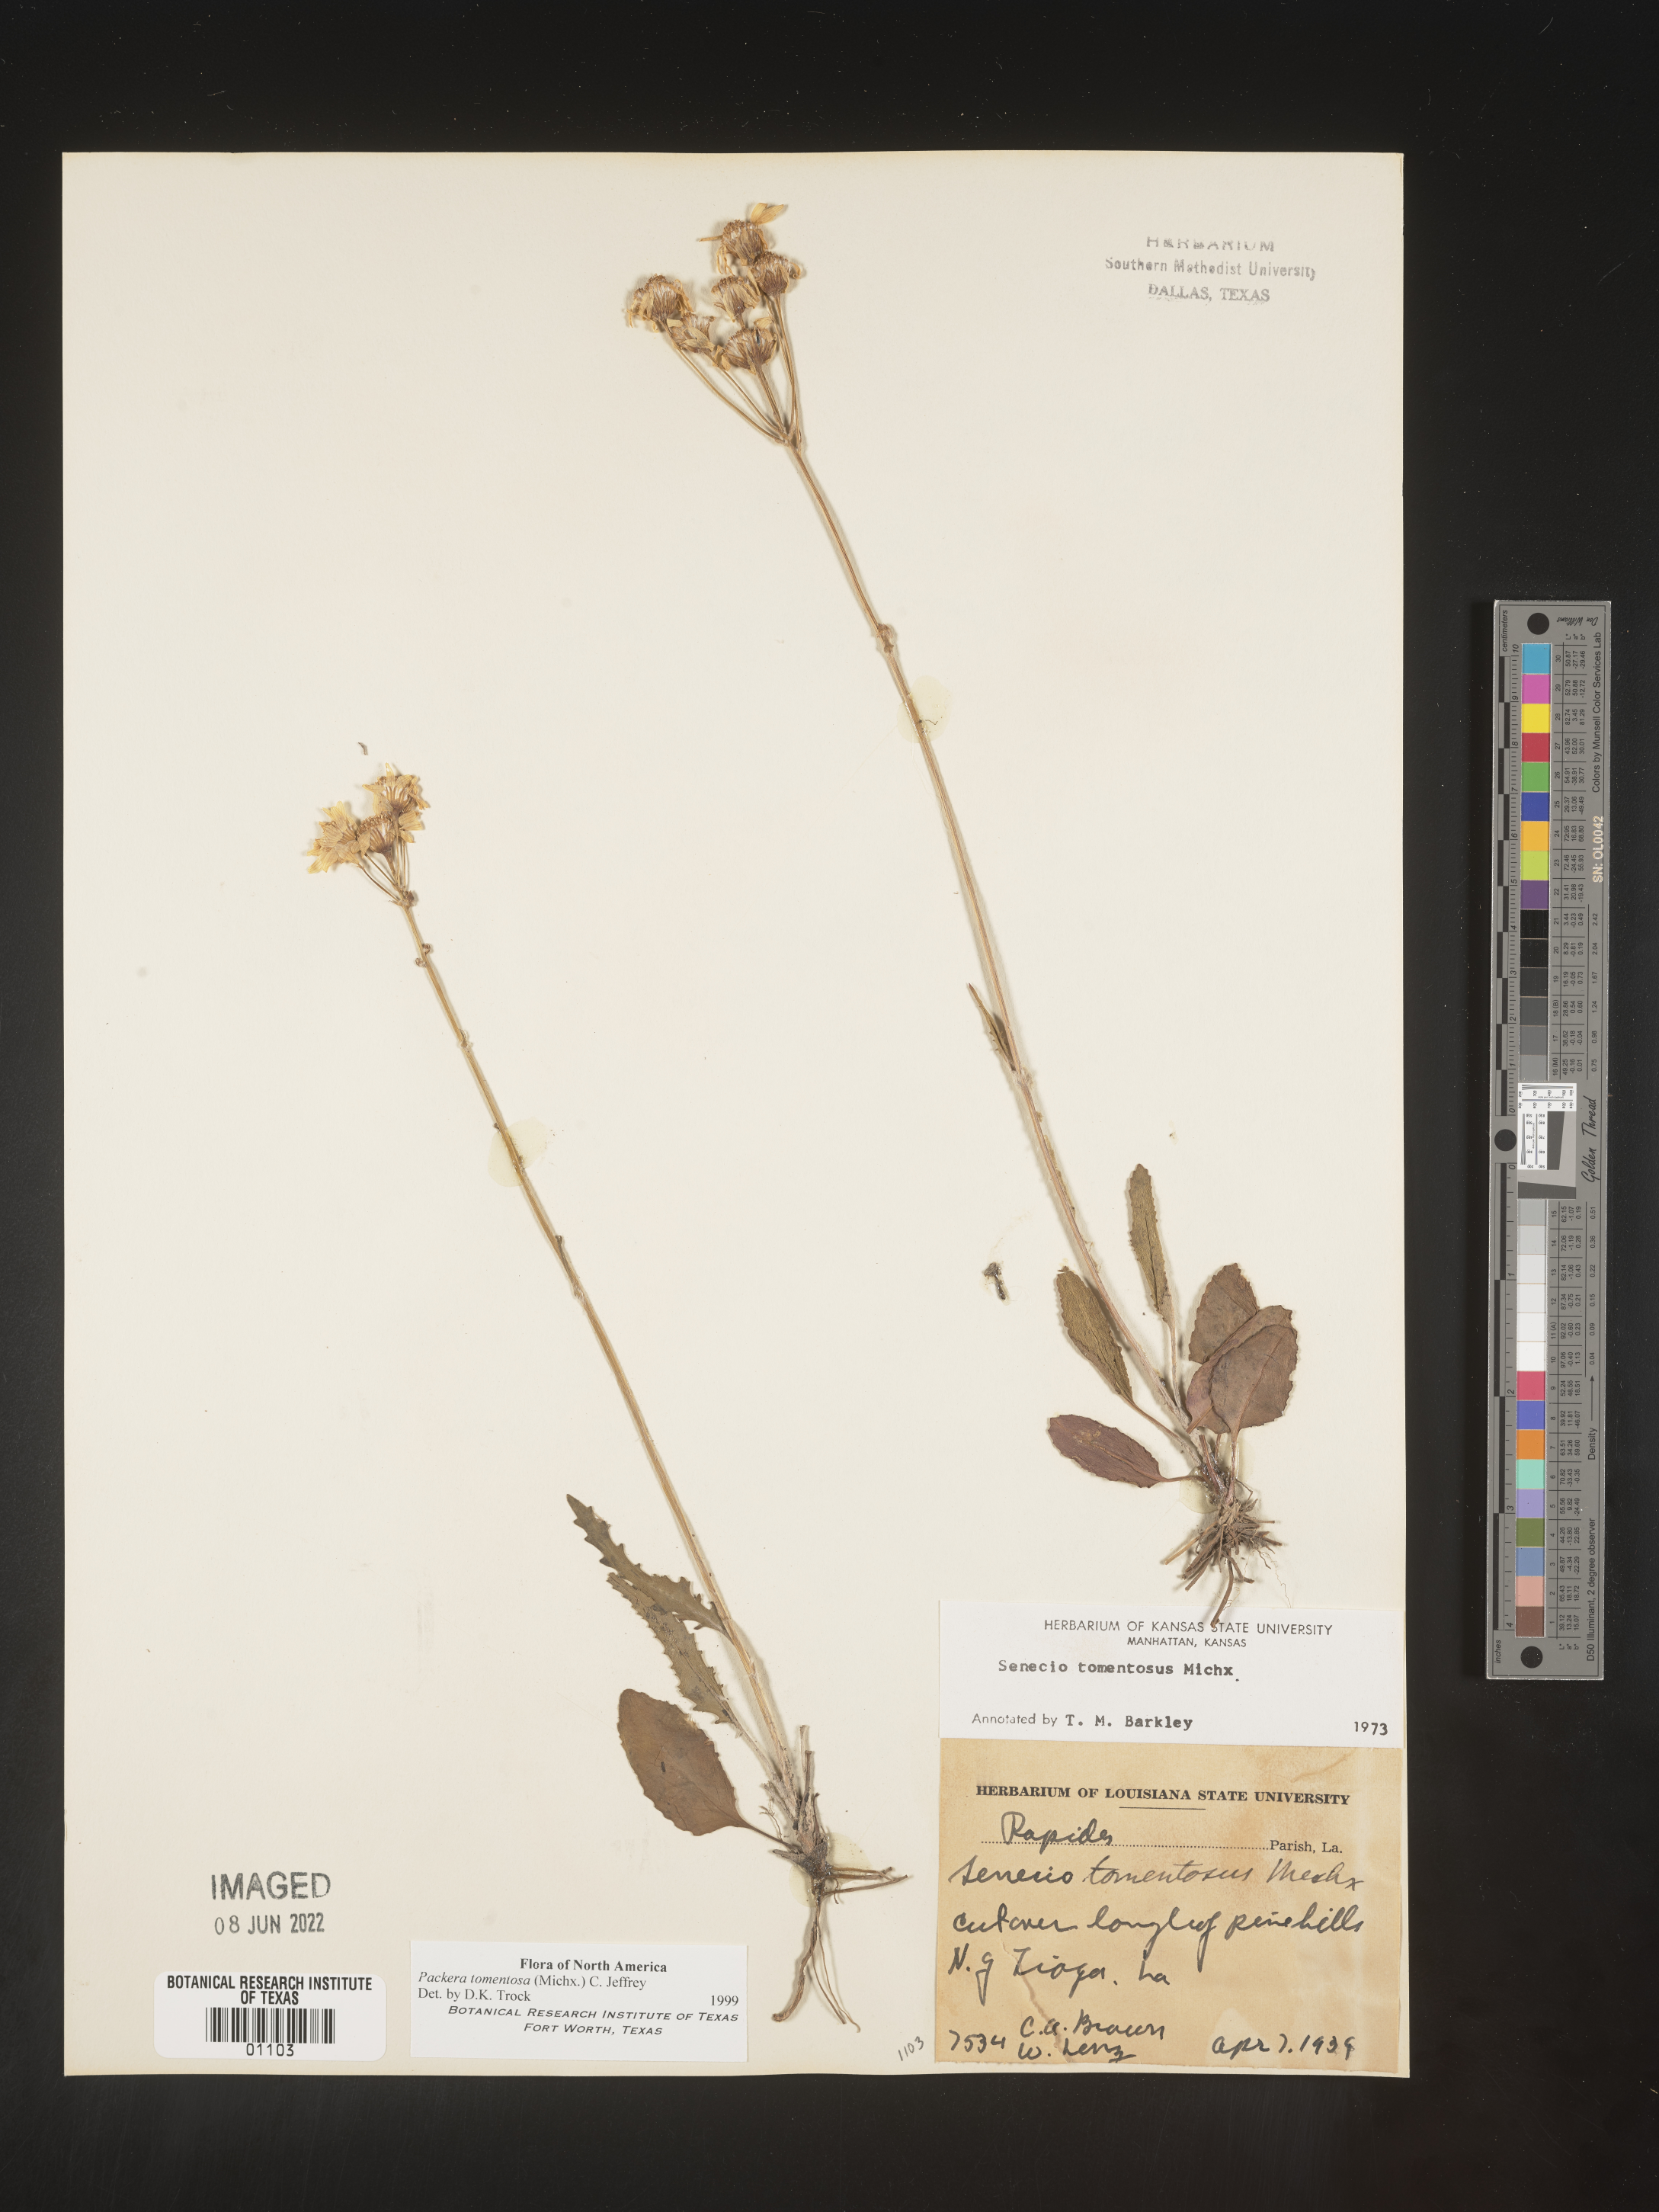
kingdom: Plantae
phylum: Tracheophyta
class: Magnoliopsida
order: Asterales
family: Asteraceae
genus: Packera
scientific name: Packera dubia
